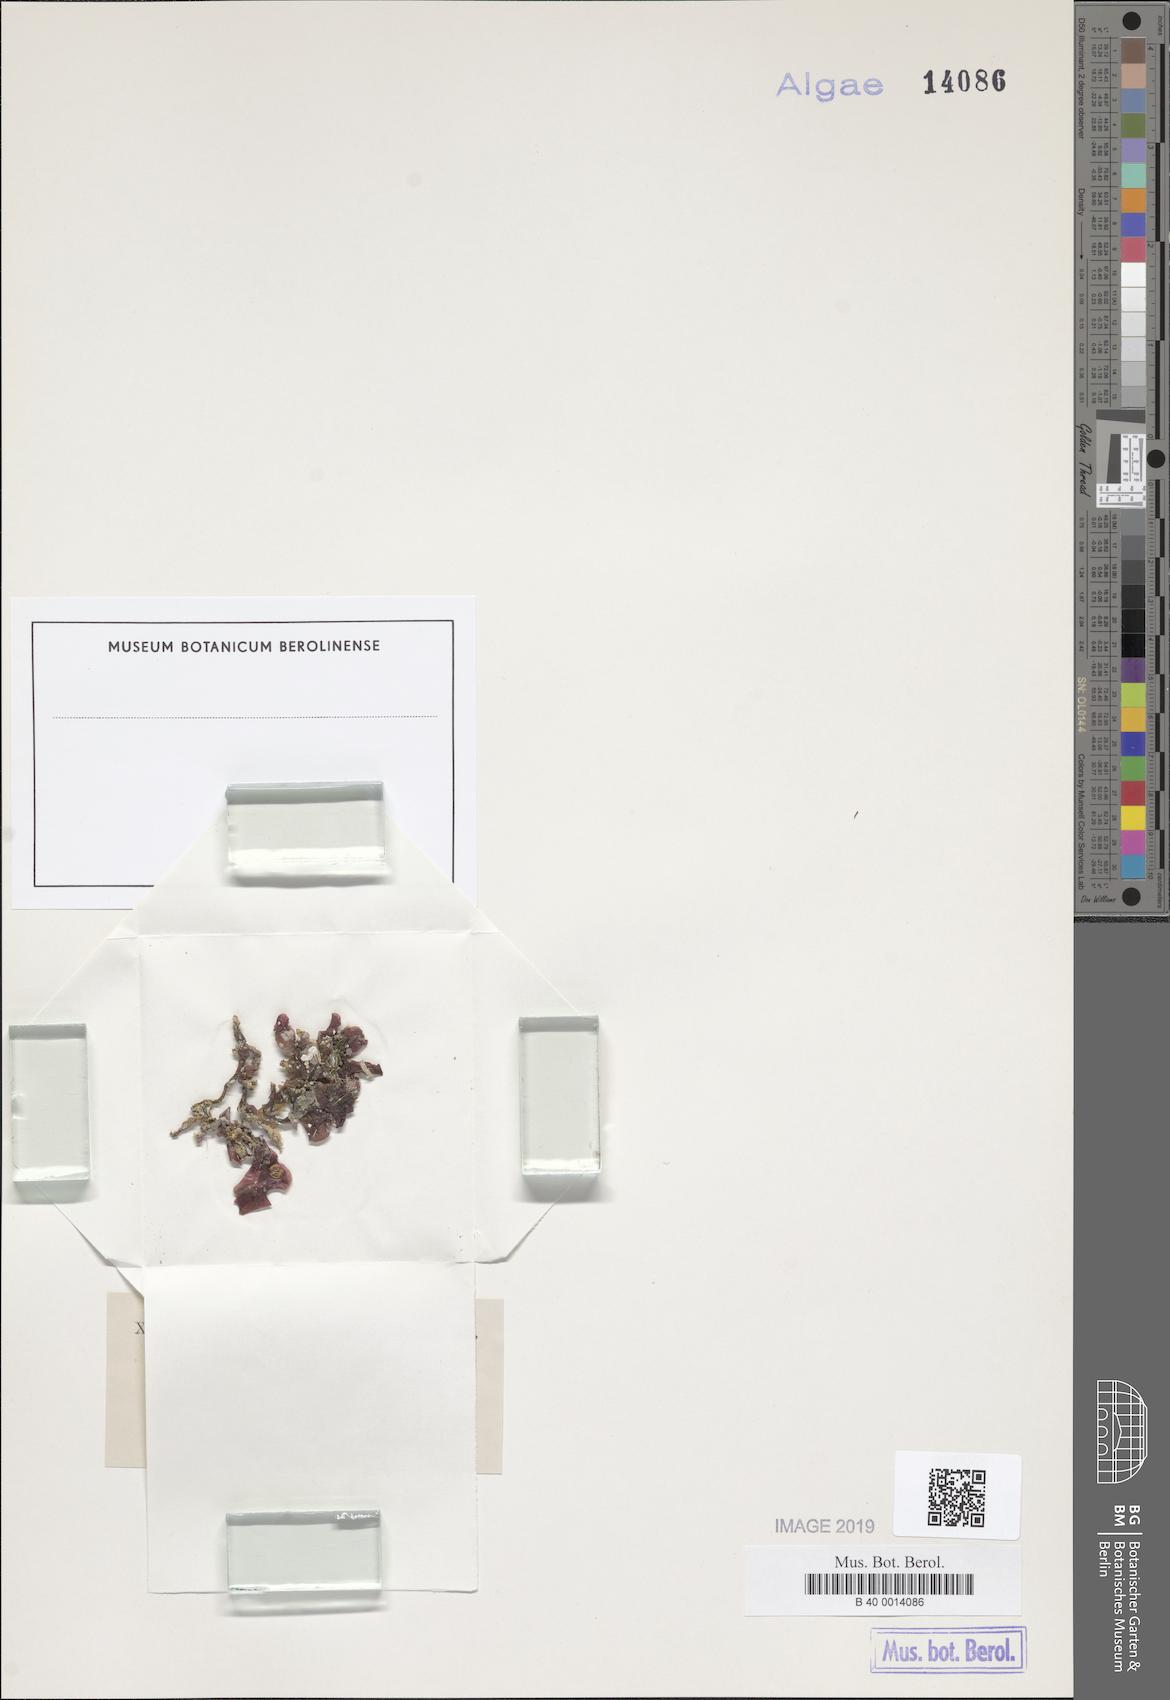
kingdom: Plantae
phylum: Rhodophyta
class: Florideophyceae
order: Halymeniales
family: Halymeniaceae
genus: Cryptonemia
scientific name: Cryptonemia lomation
